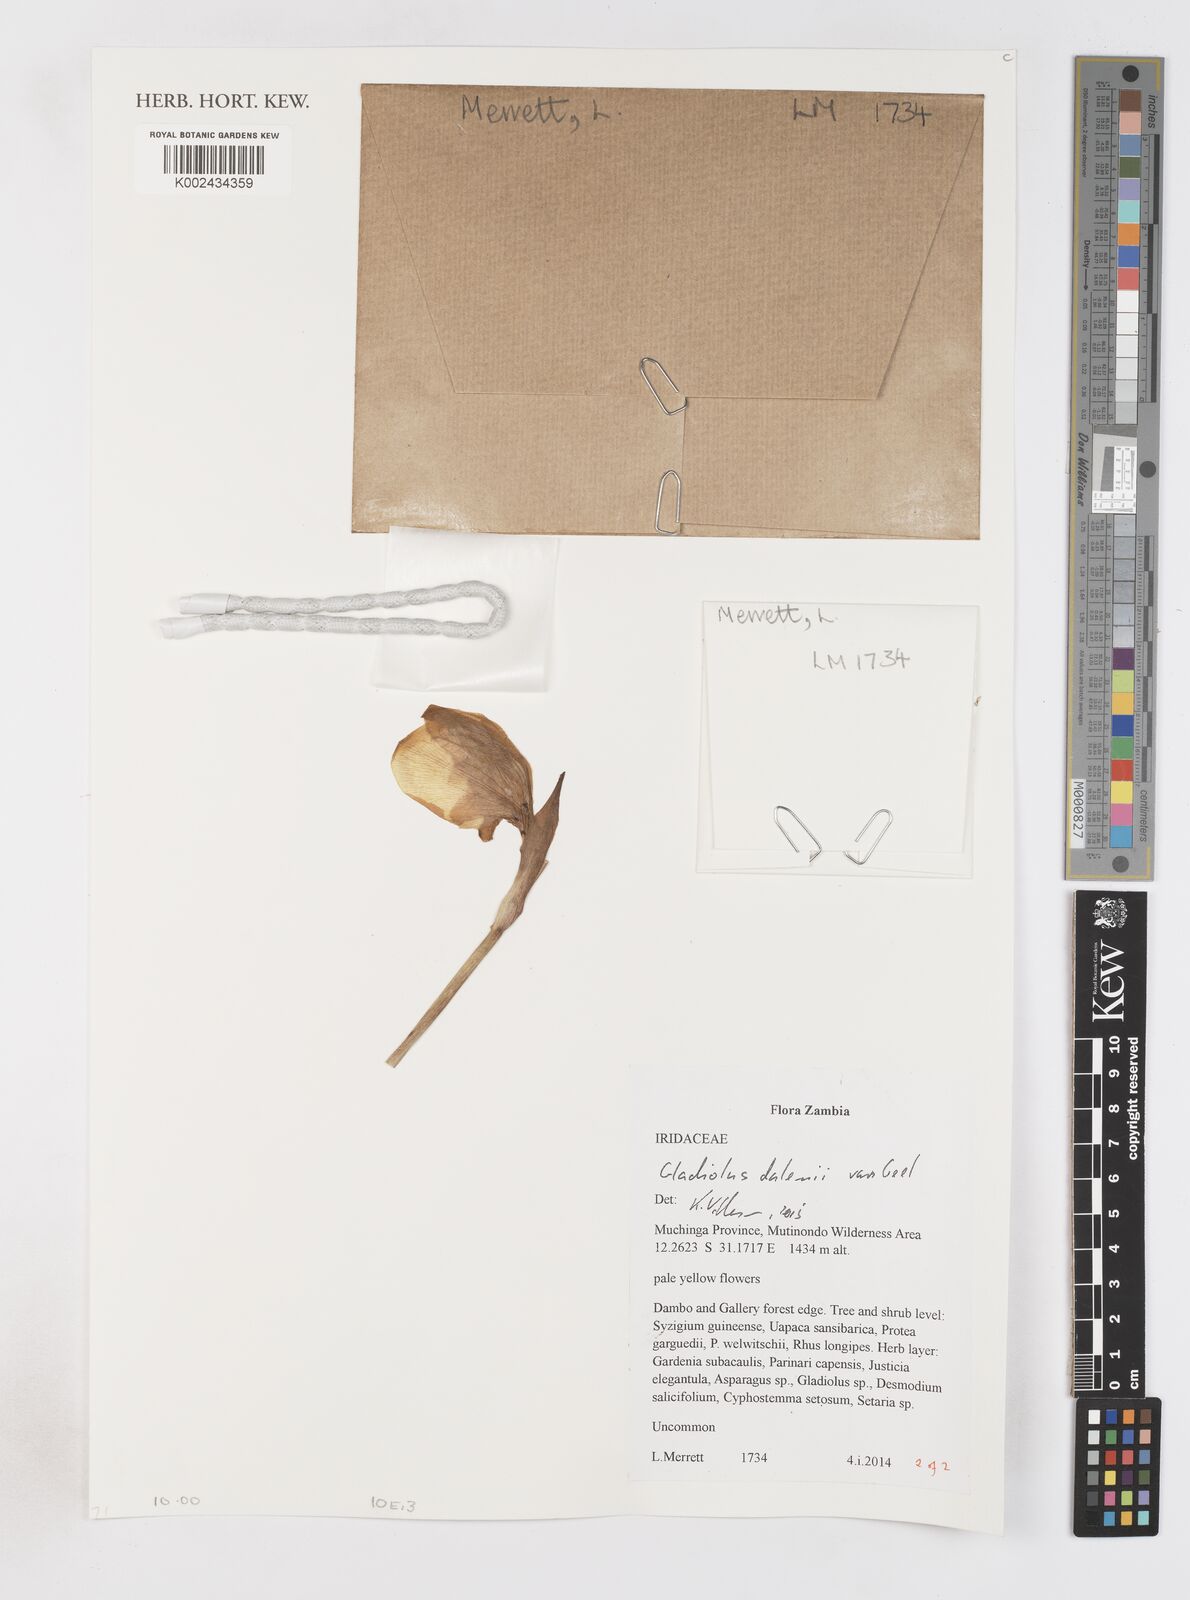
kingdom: Plantae
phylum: Tracheophyta
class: Liliopsida
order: Asparagales
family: Iridaceae
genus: Gladiolus
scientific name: Gladiolus dalenii
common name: Cornflag
